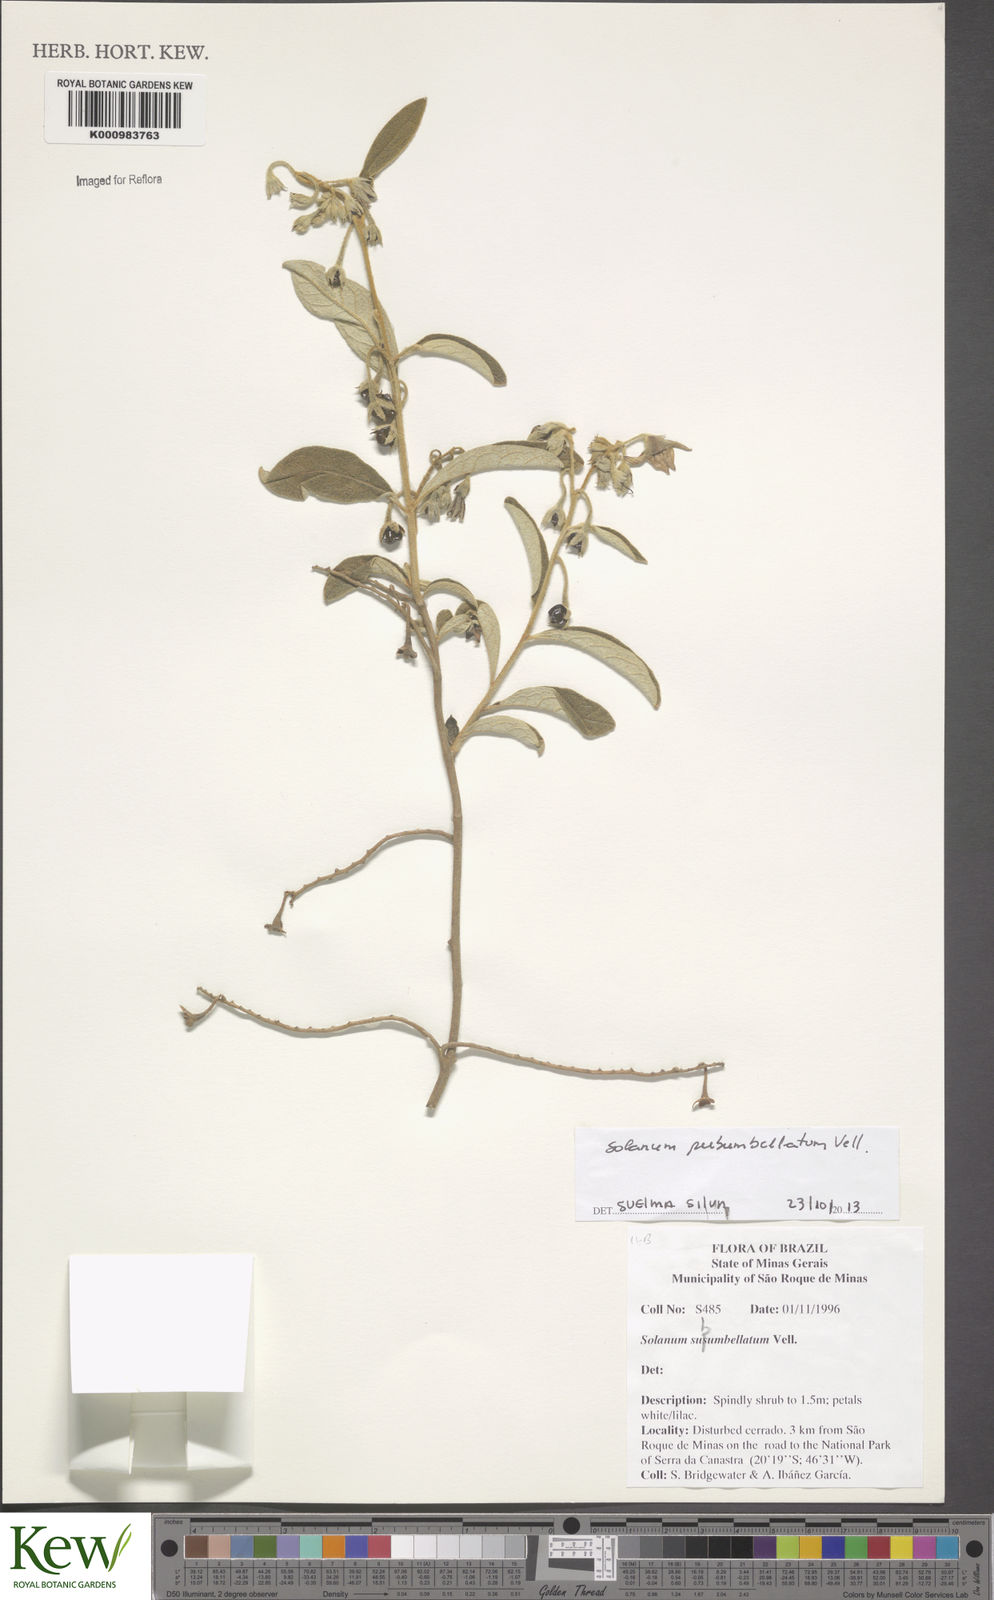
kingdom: Plantae
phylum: Tracheophyta
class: Magnoliopsida
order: Solanales
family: Solanaceae
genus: Solanum
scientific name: Solanum subumbellatum
